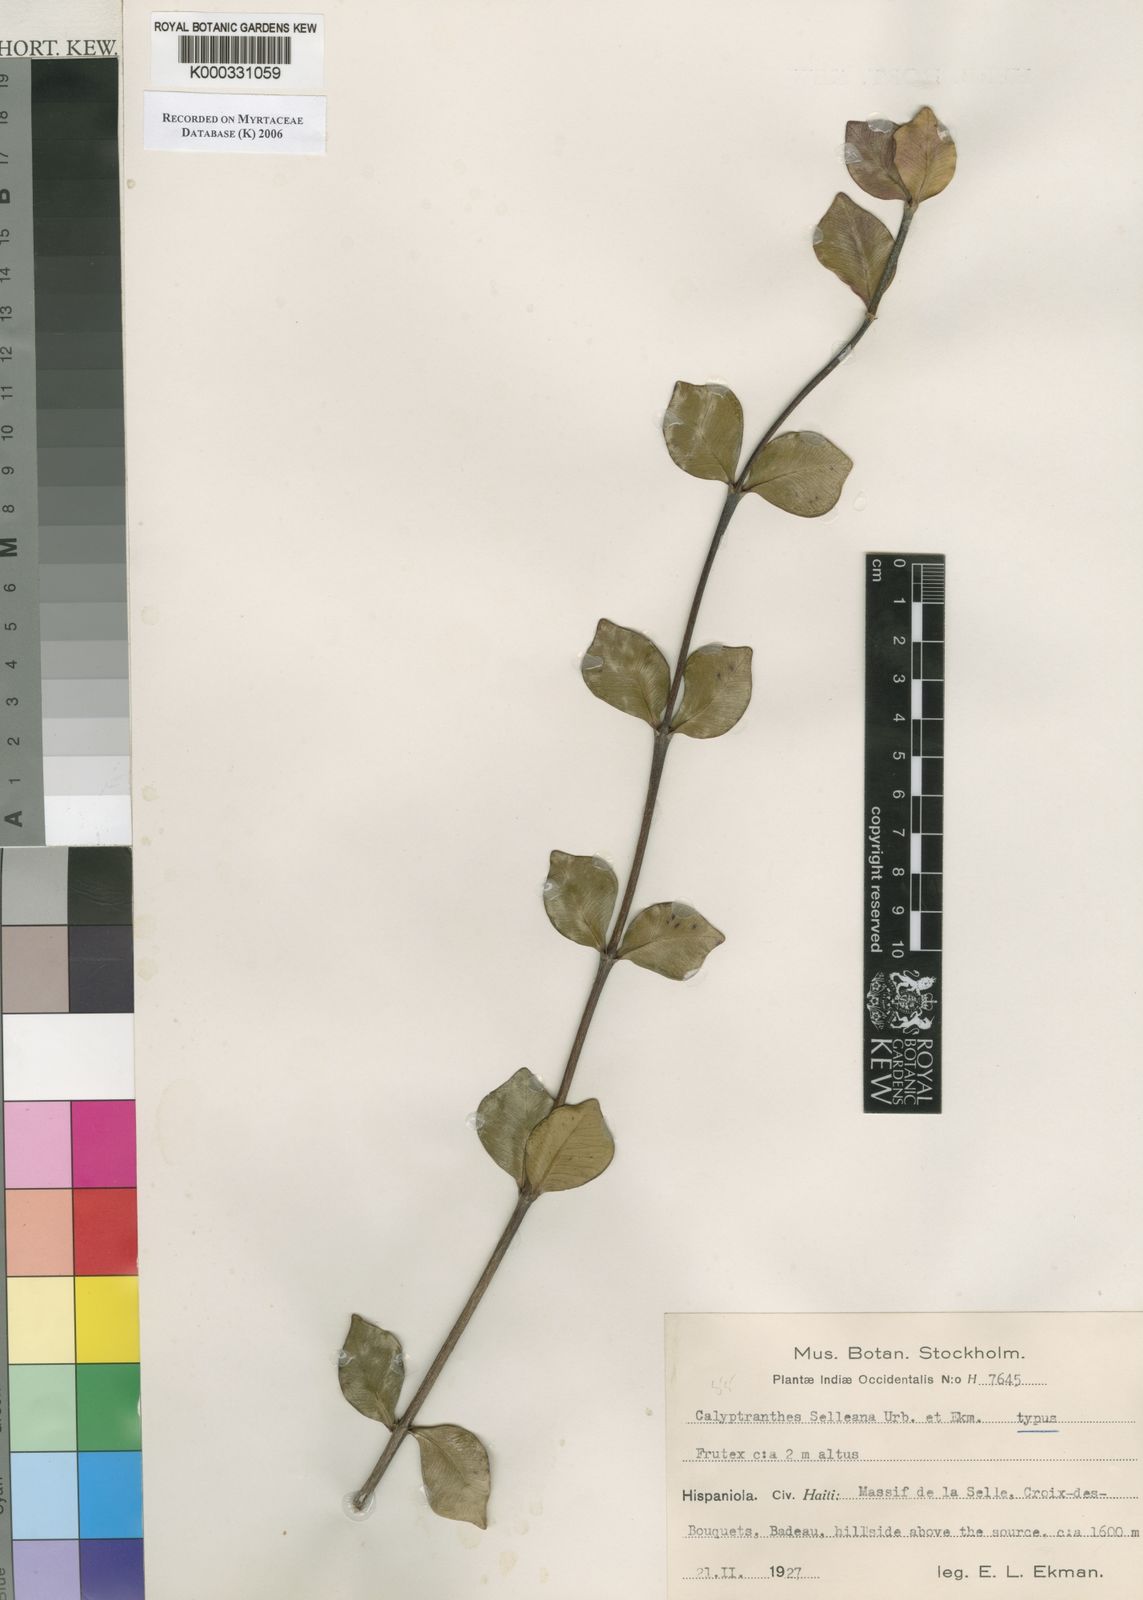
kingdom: Plantae
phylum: Tracheophyta
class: Magnoliopsida
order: Myrtales
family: Myrtaceae
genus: Myrcia
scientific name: Myrcia selleana
